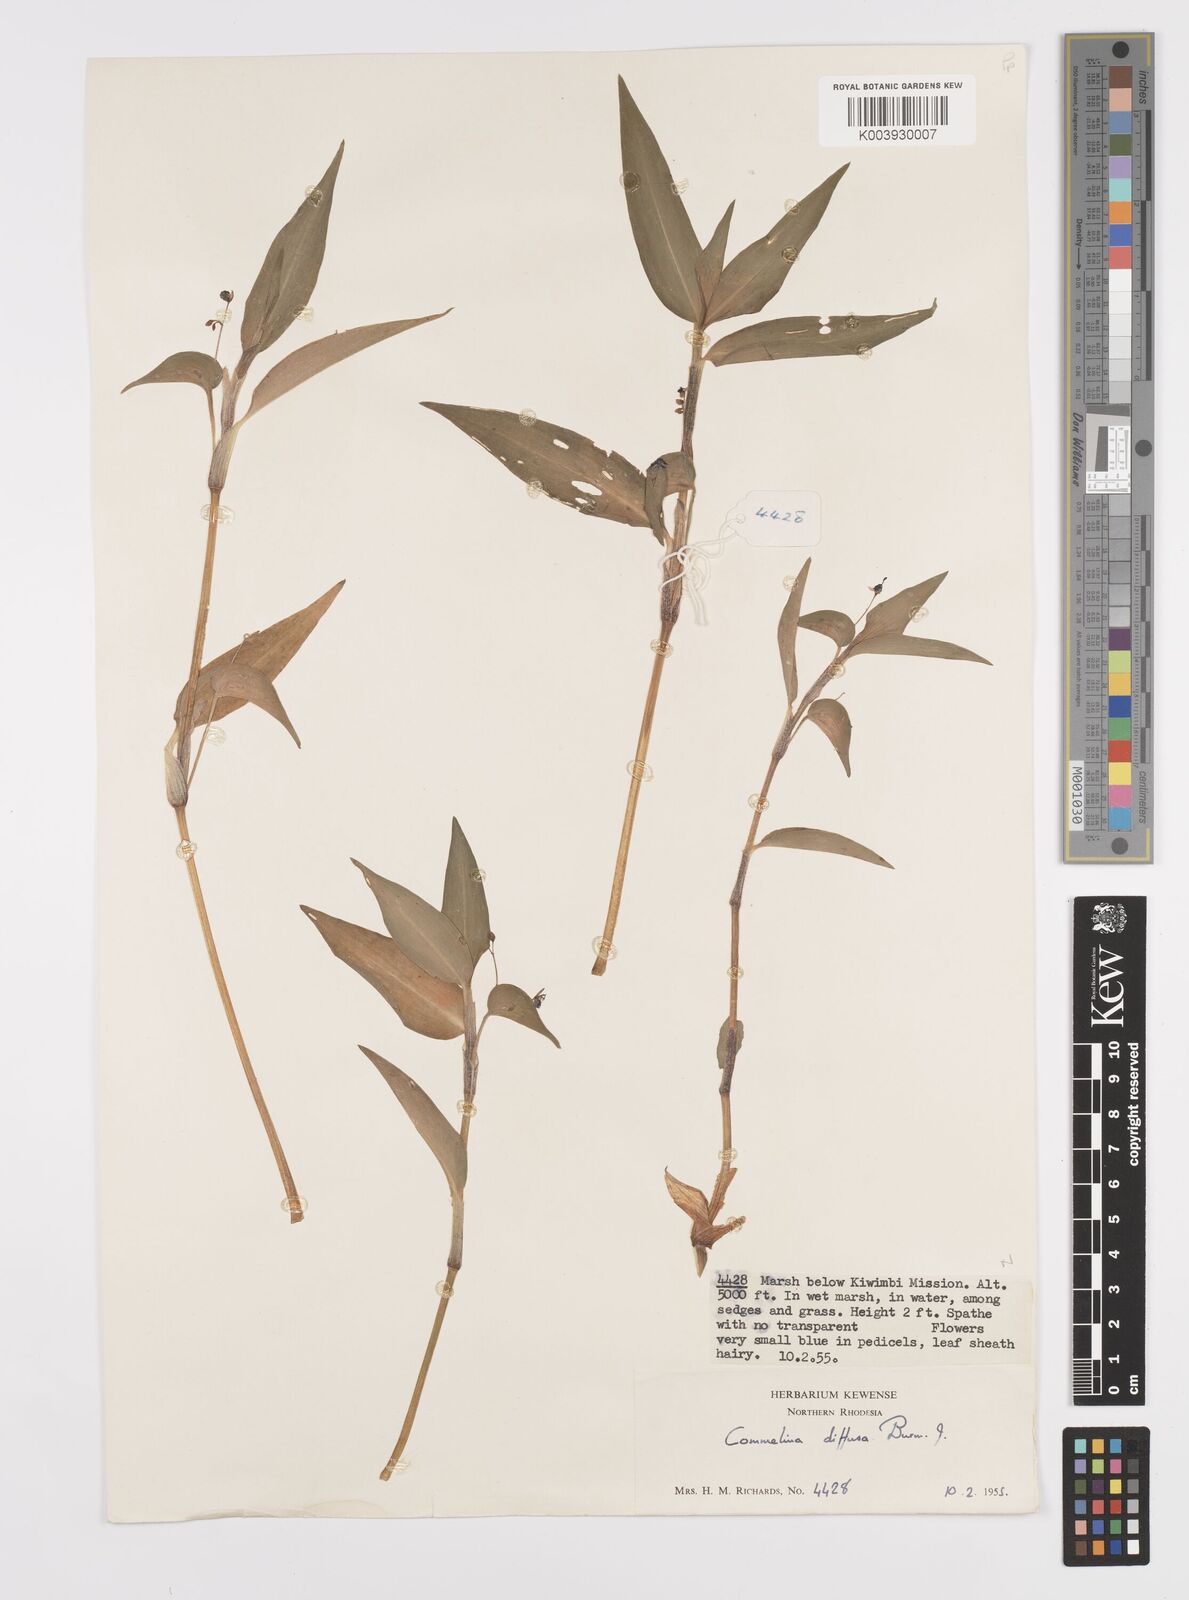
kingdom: Plantae
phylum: Tracheophyta
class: Liliopsida
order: Commelinales
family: Commelinaceae
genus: Commelina
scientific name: Commelina diffusa
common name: Climbing dayflower
